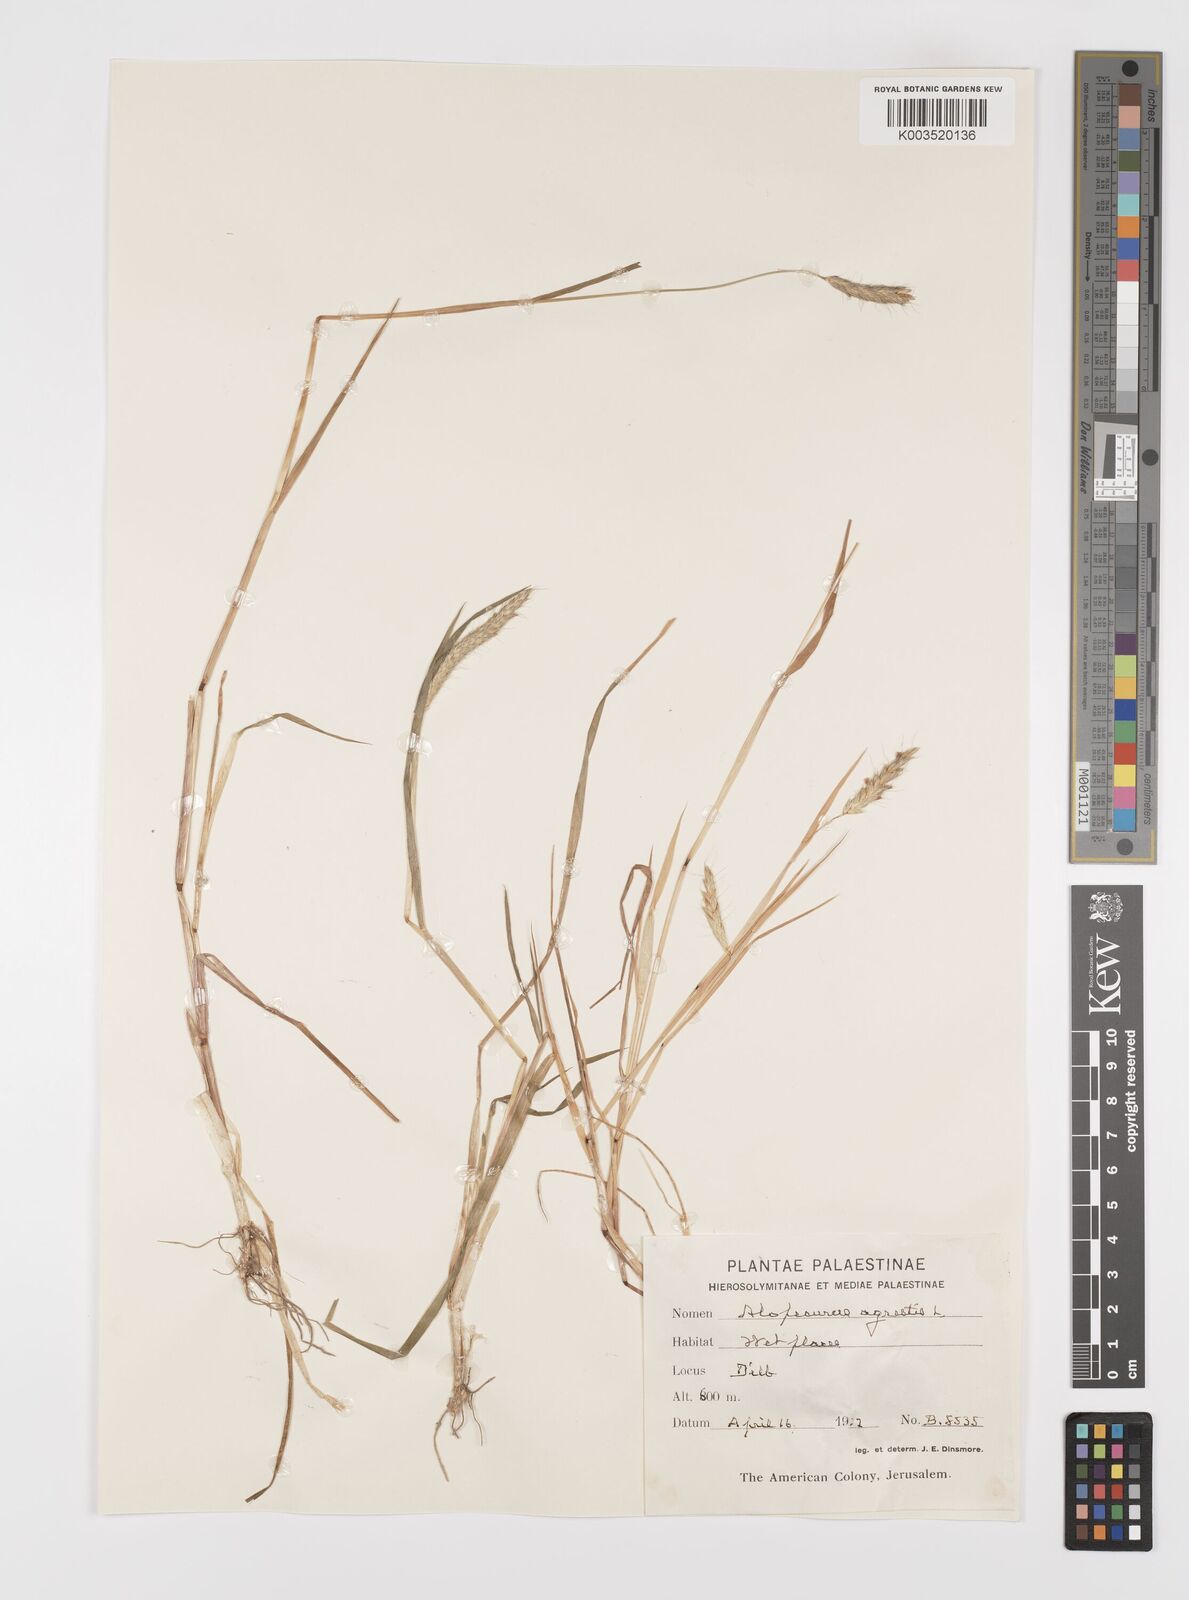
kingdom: Plantae
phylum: Tracheophyta
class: Liliopsida
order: Poales
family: Poaceae
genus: Alopecurus
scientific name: Alopecurus myosuroides
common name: Black-grass
